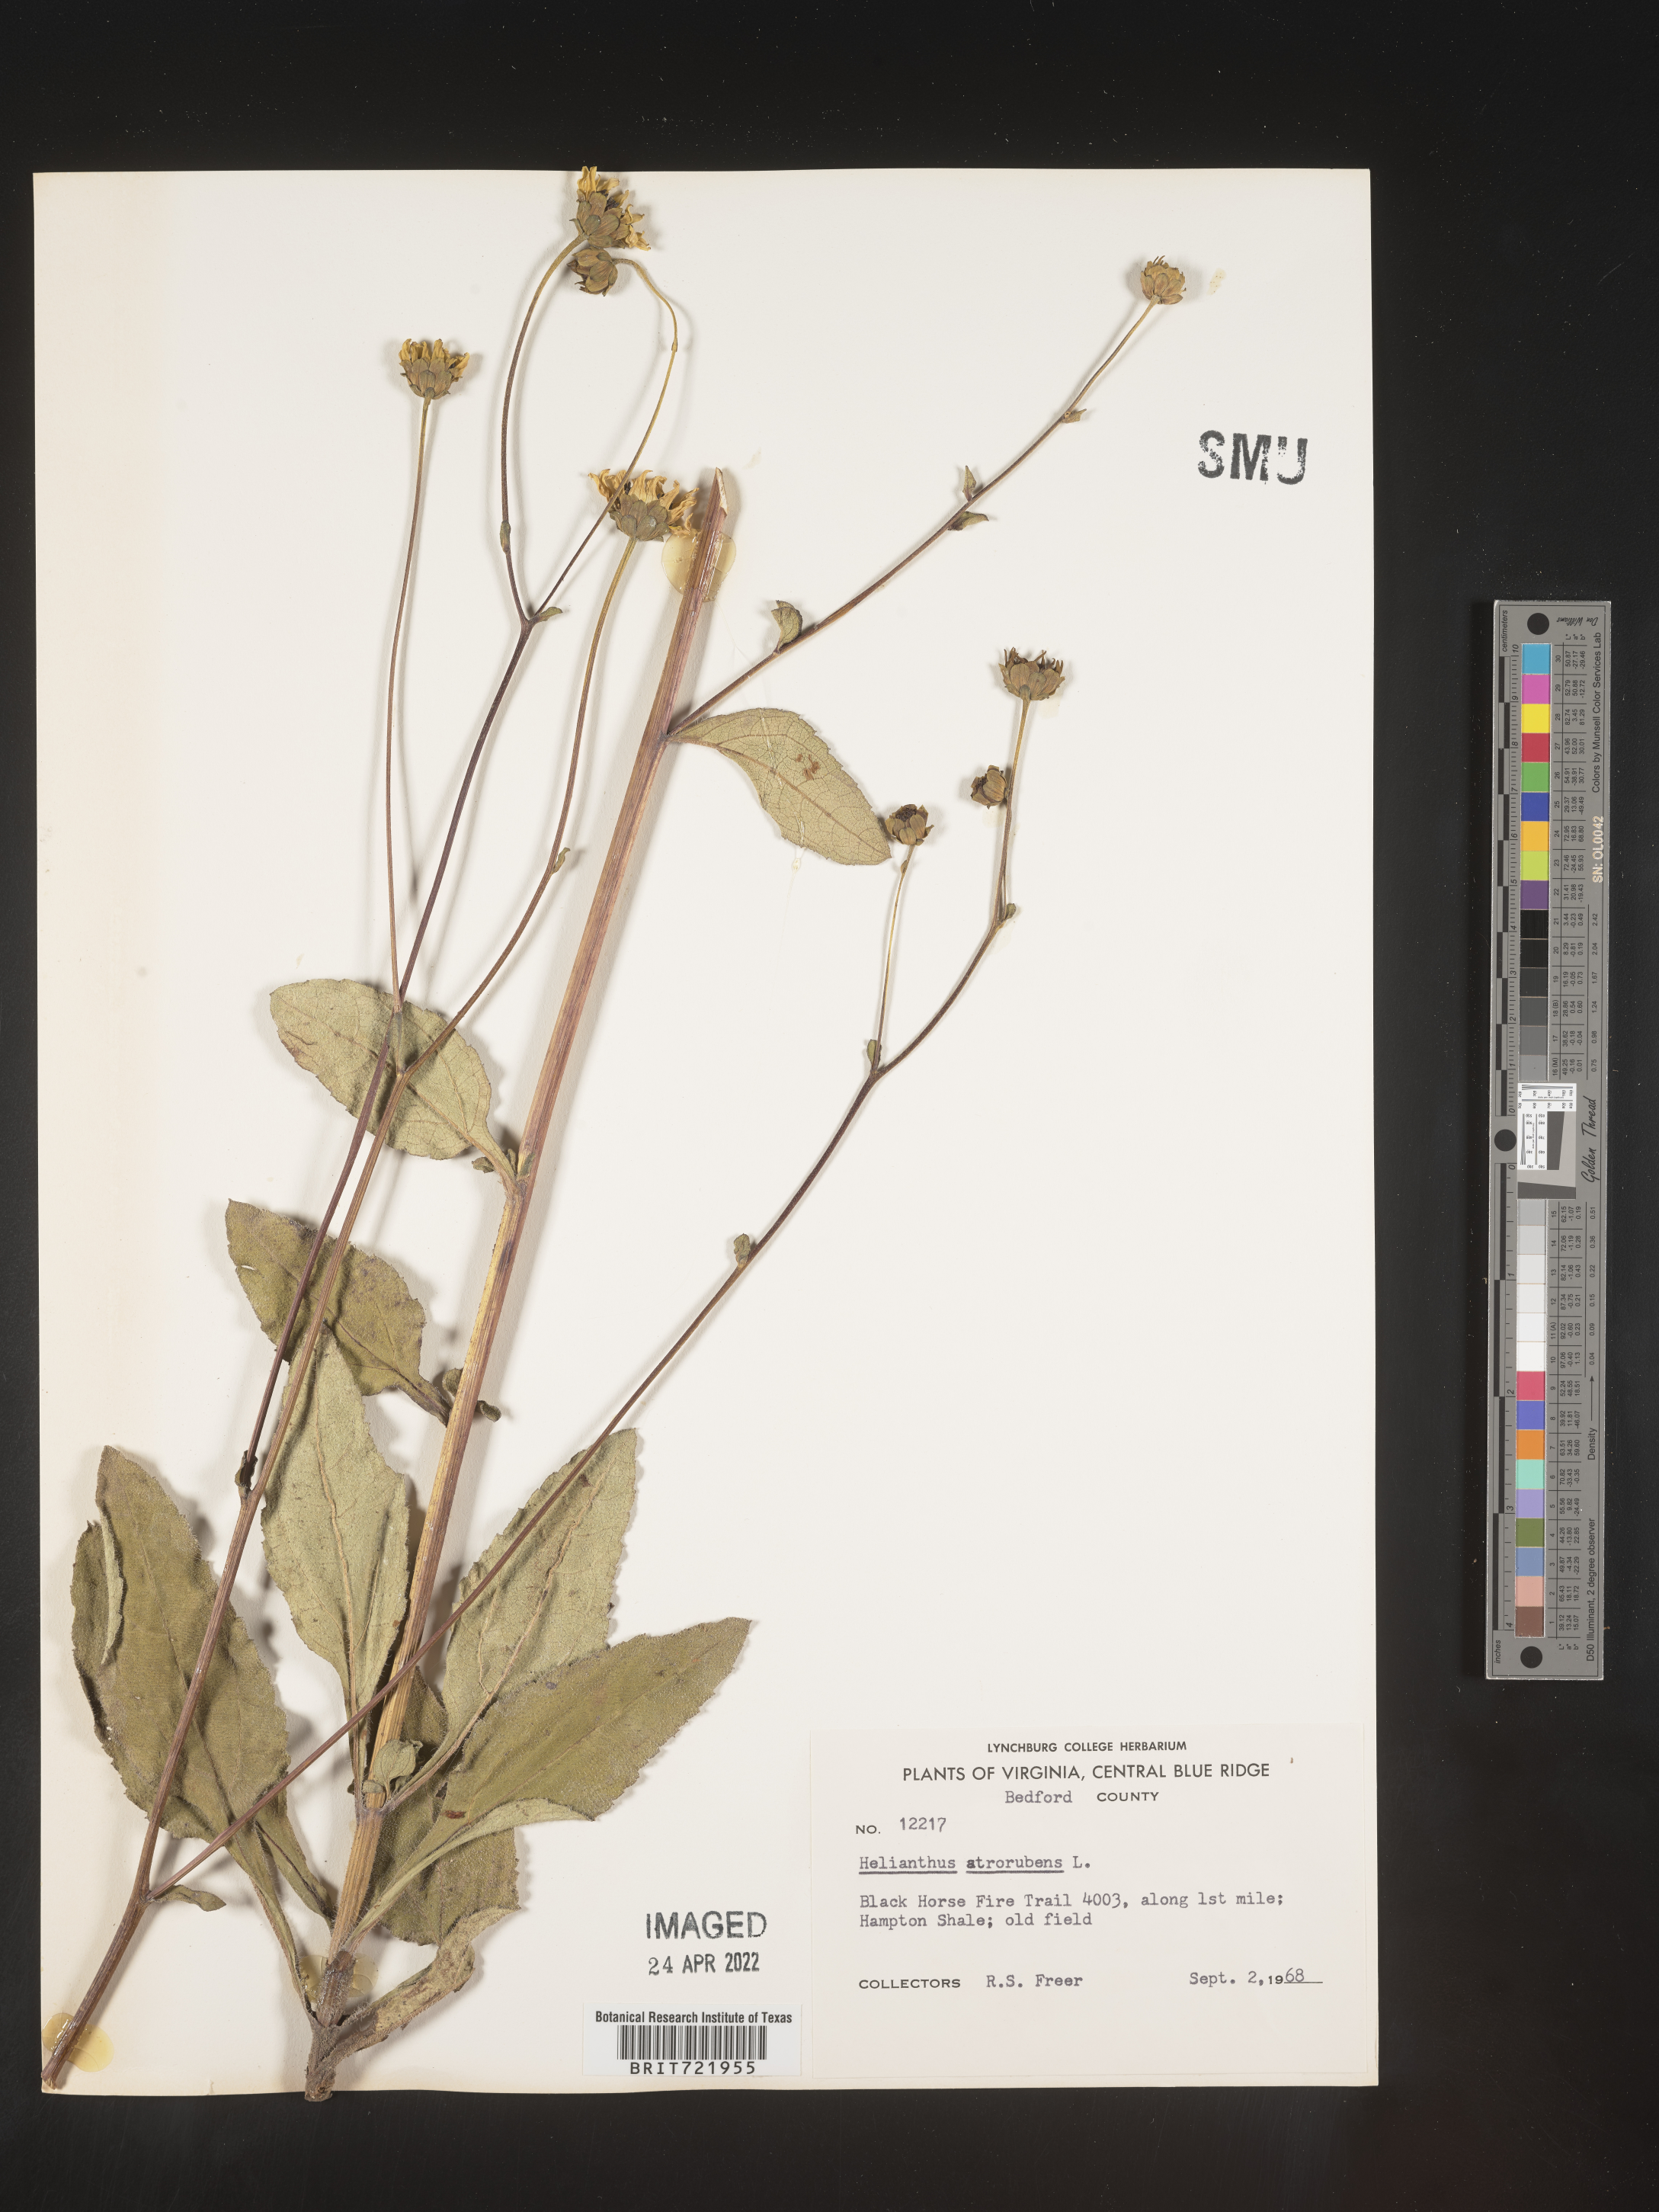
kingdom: Plantae
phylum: Tracheophyta
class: Magnoliopsida
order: Asterales
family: Asteraceae
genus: Helianthus
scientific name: Helianthus atrorubens
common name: Dark-eyed sunflower
